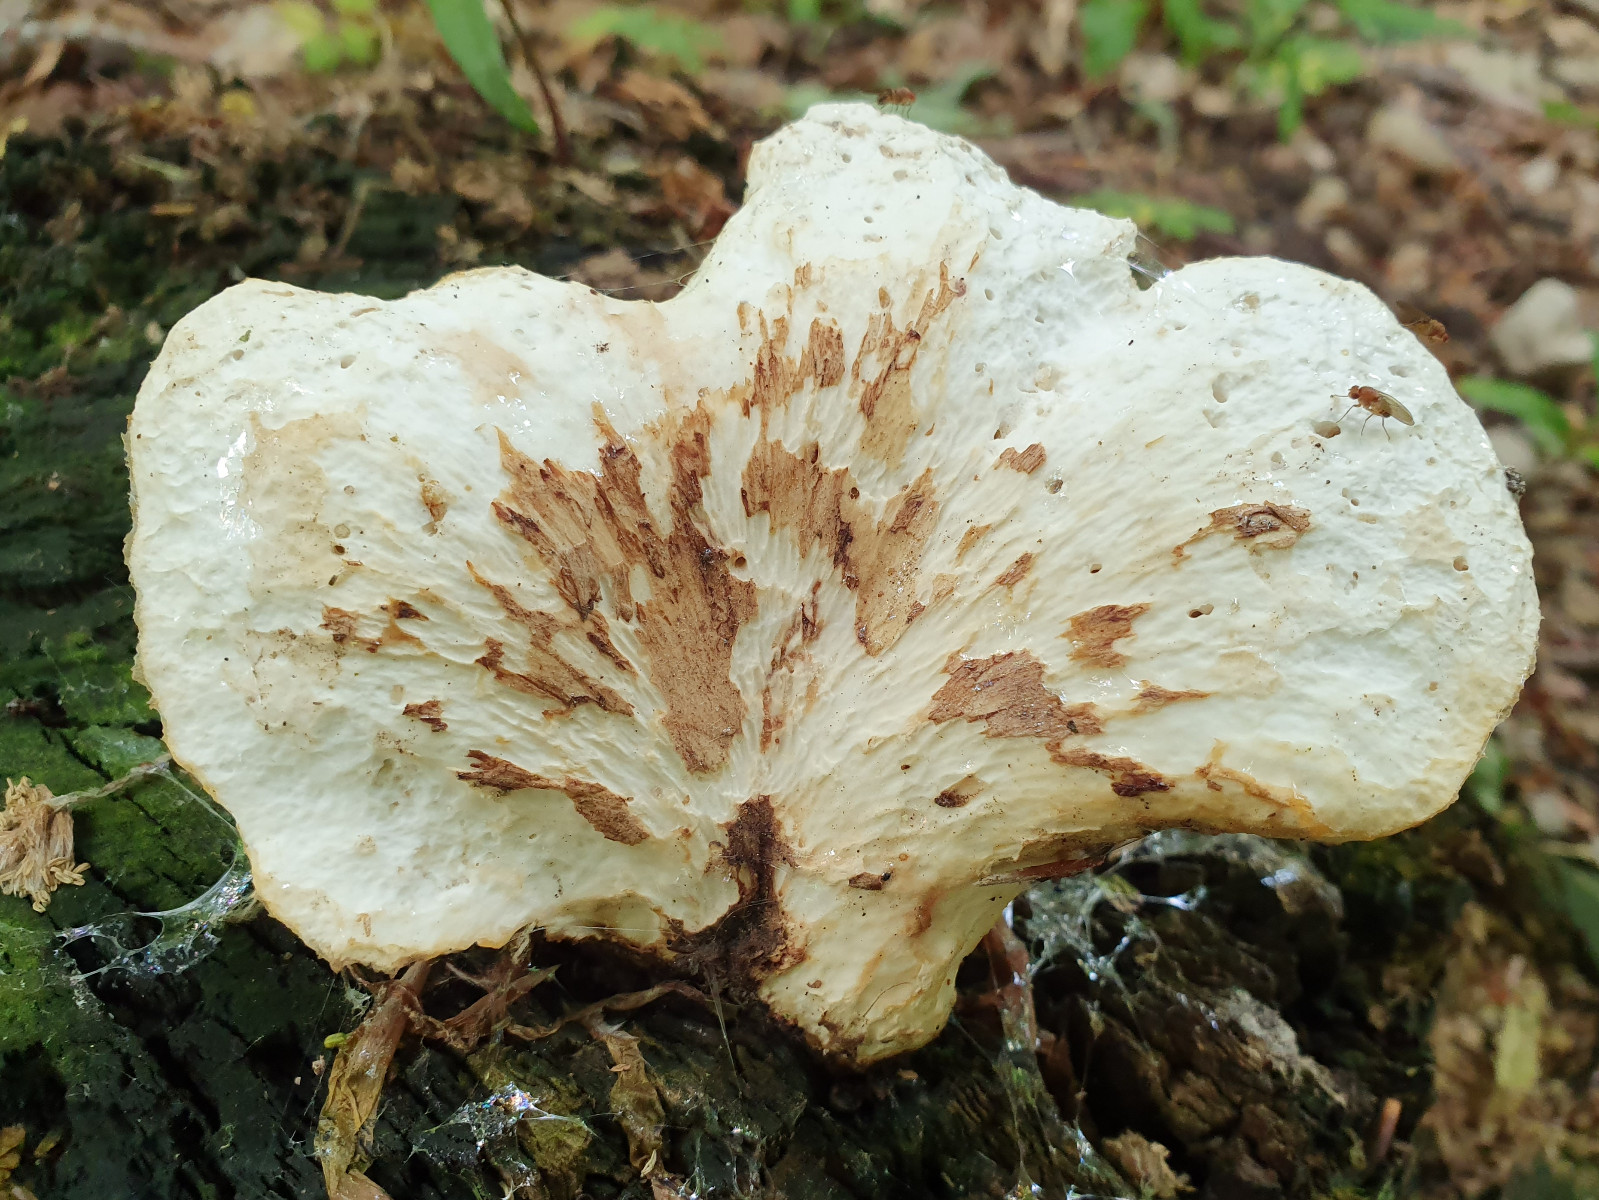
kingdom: Fungi
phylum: Basidiomycota
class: Agaricomycetes
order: Polyporales
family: Polyporaceae
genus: Cerioporus
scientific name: Cerioporus squamosus
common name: skællet stilkporesvamp
